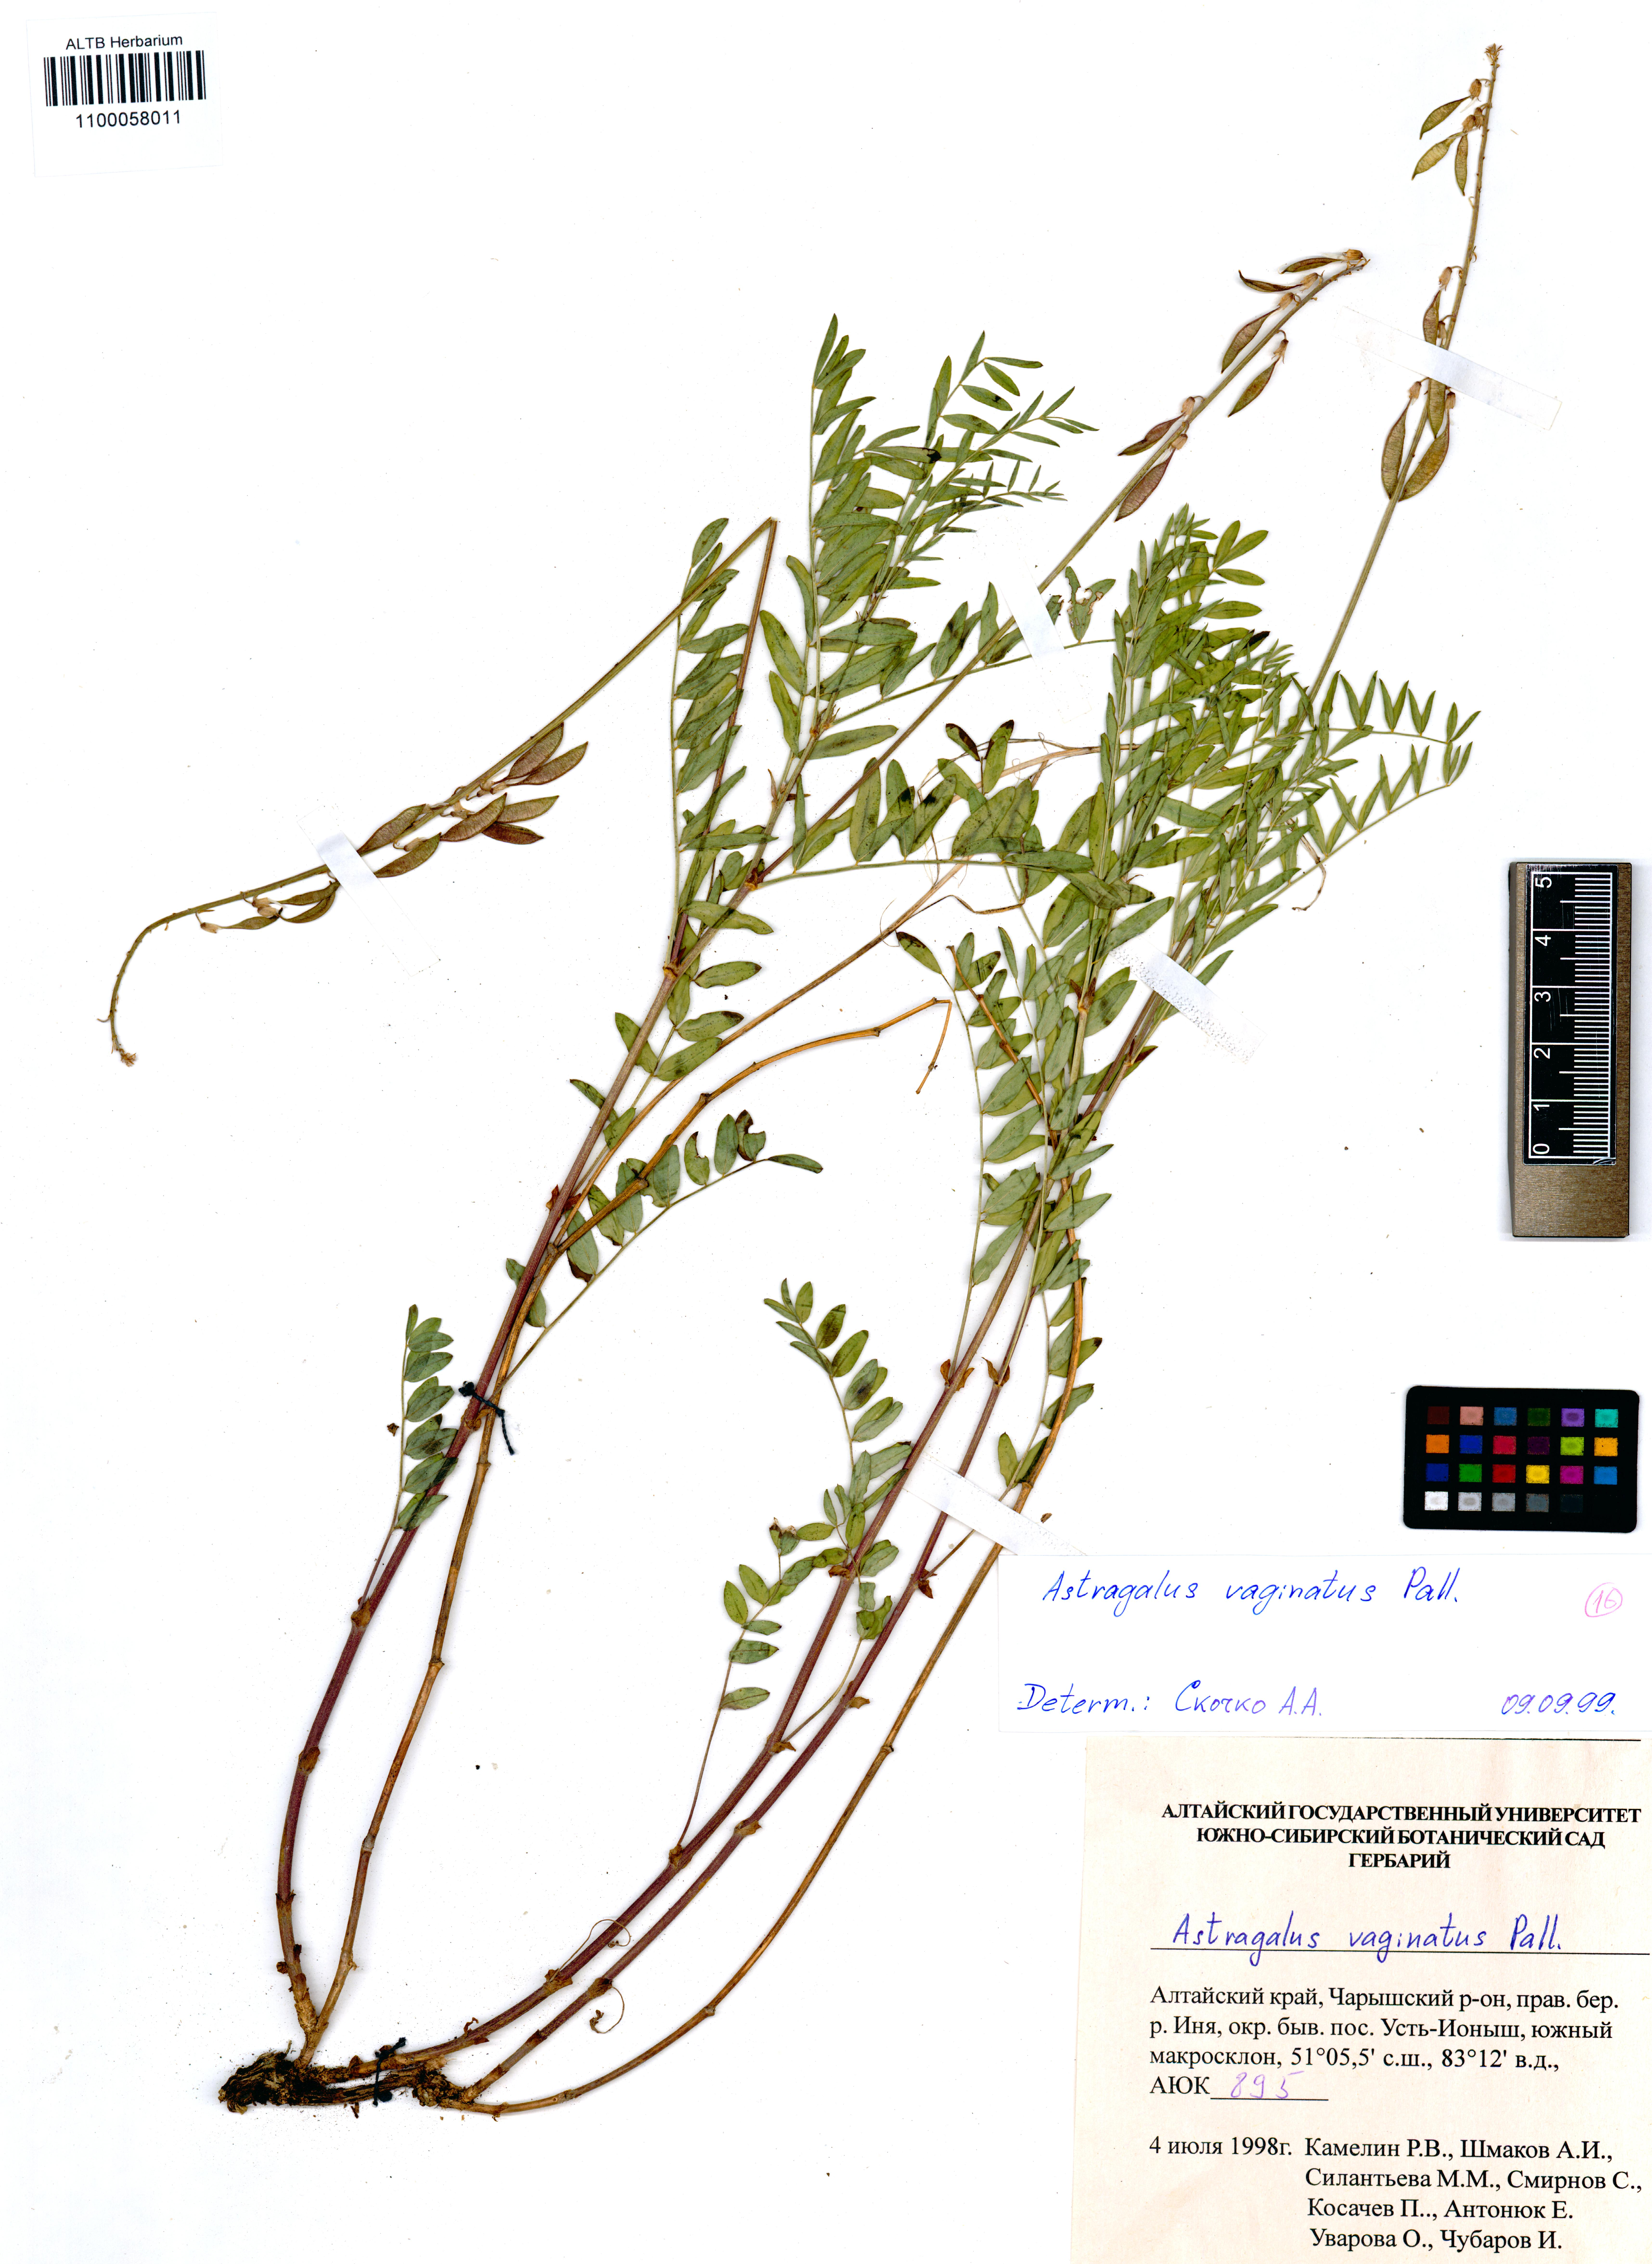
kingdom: Plantae
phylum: Tracheophyta
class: Magnoliopsida
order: Fabales
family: Fabaceae
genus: Astragalus
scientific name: Astragalus vaginatus
